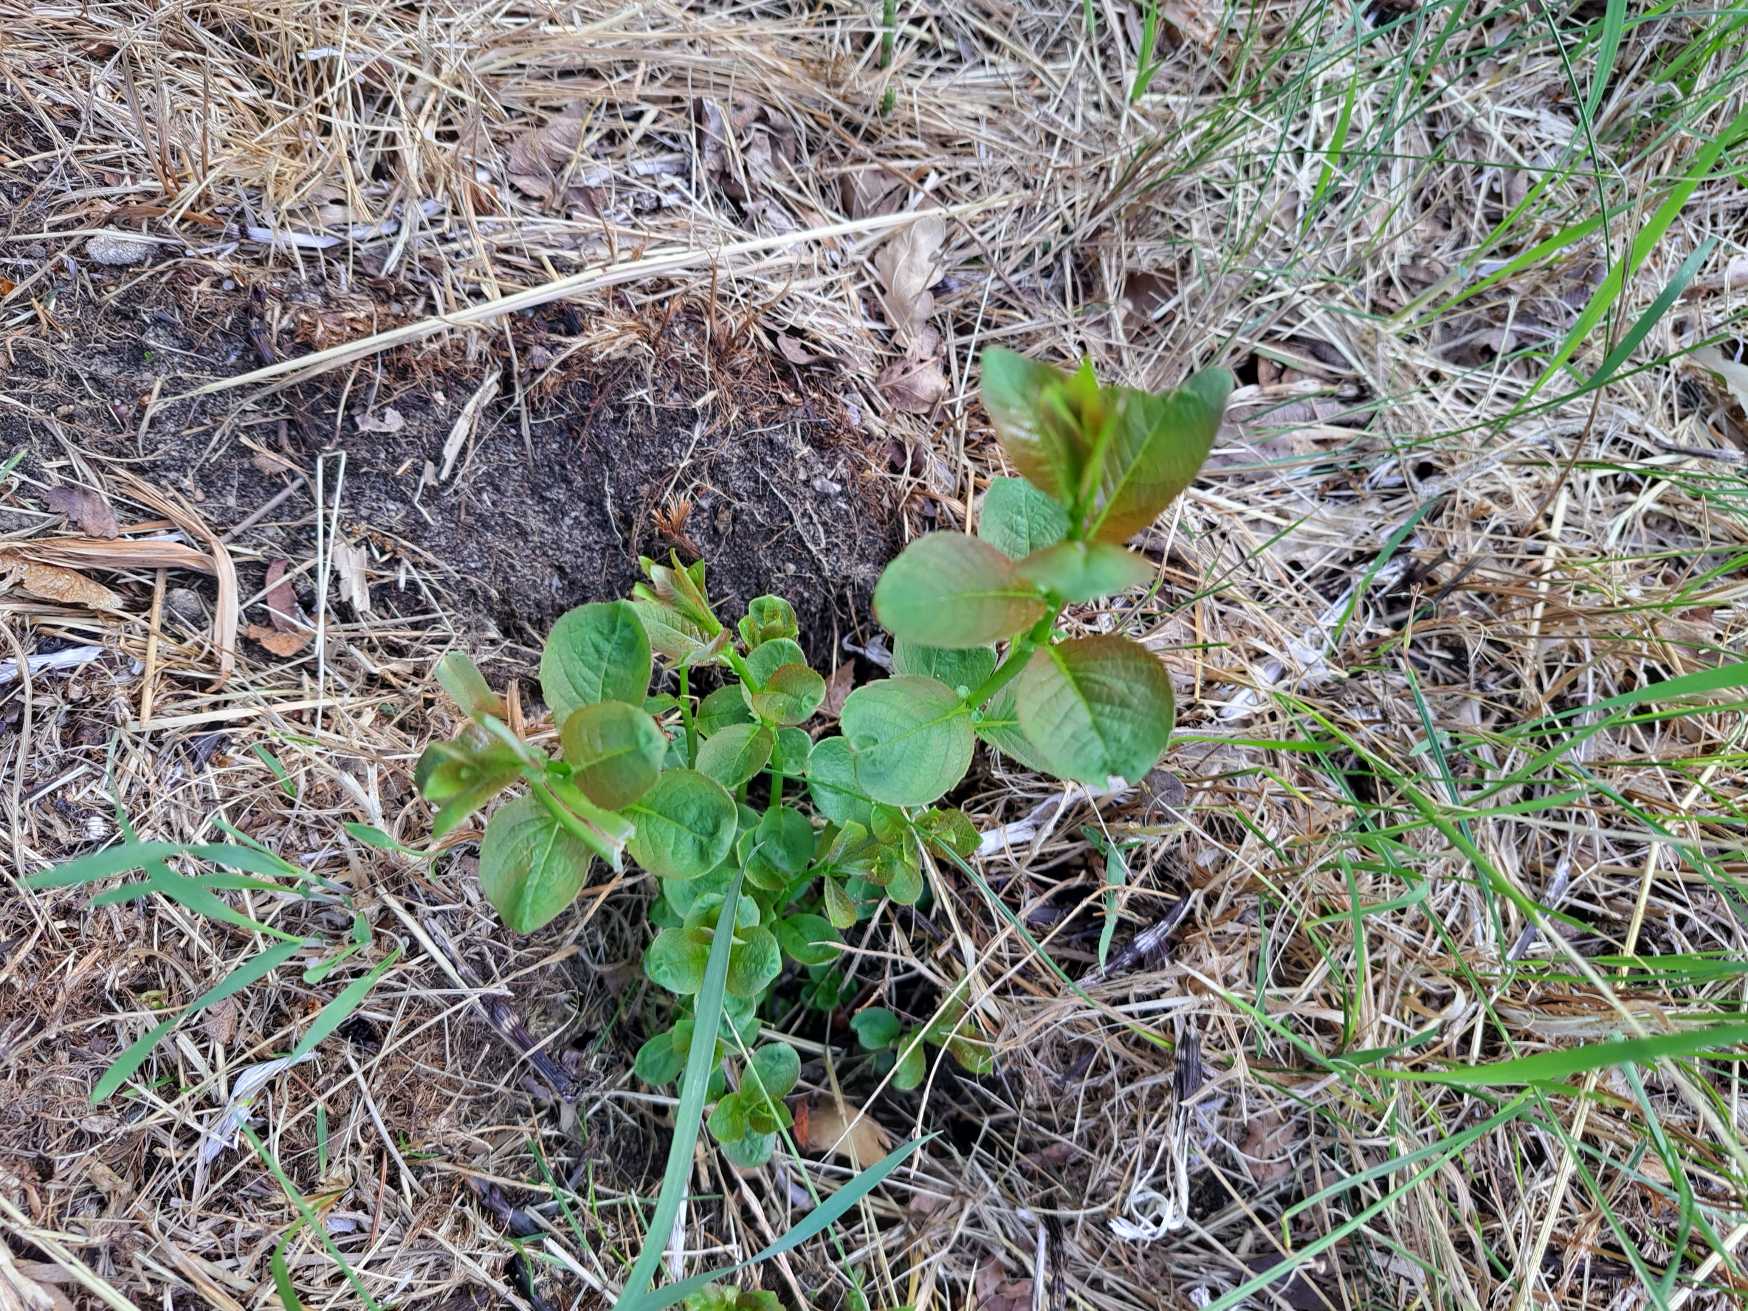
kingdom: Plantae
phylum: Tracheophyta
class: Magnoliopsida
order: Ericales
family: Ericaceae
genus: Vaccinium
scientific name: Vaccinium myrtillus
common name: Blåbær
